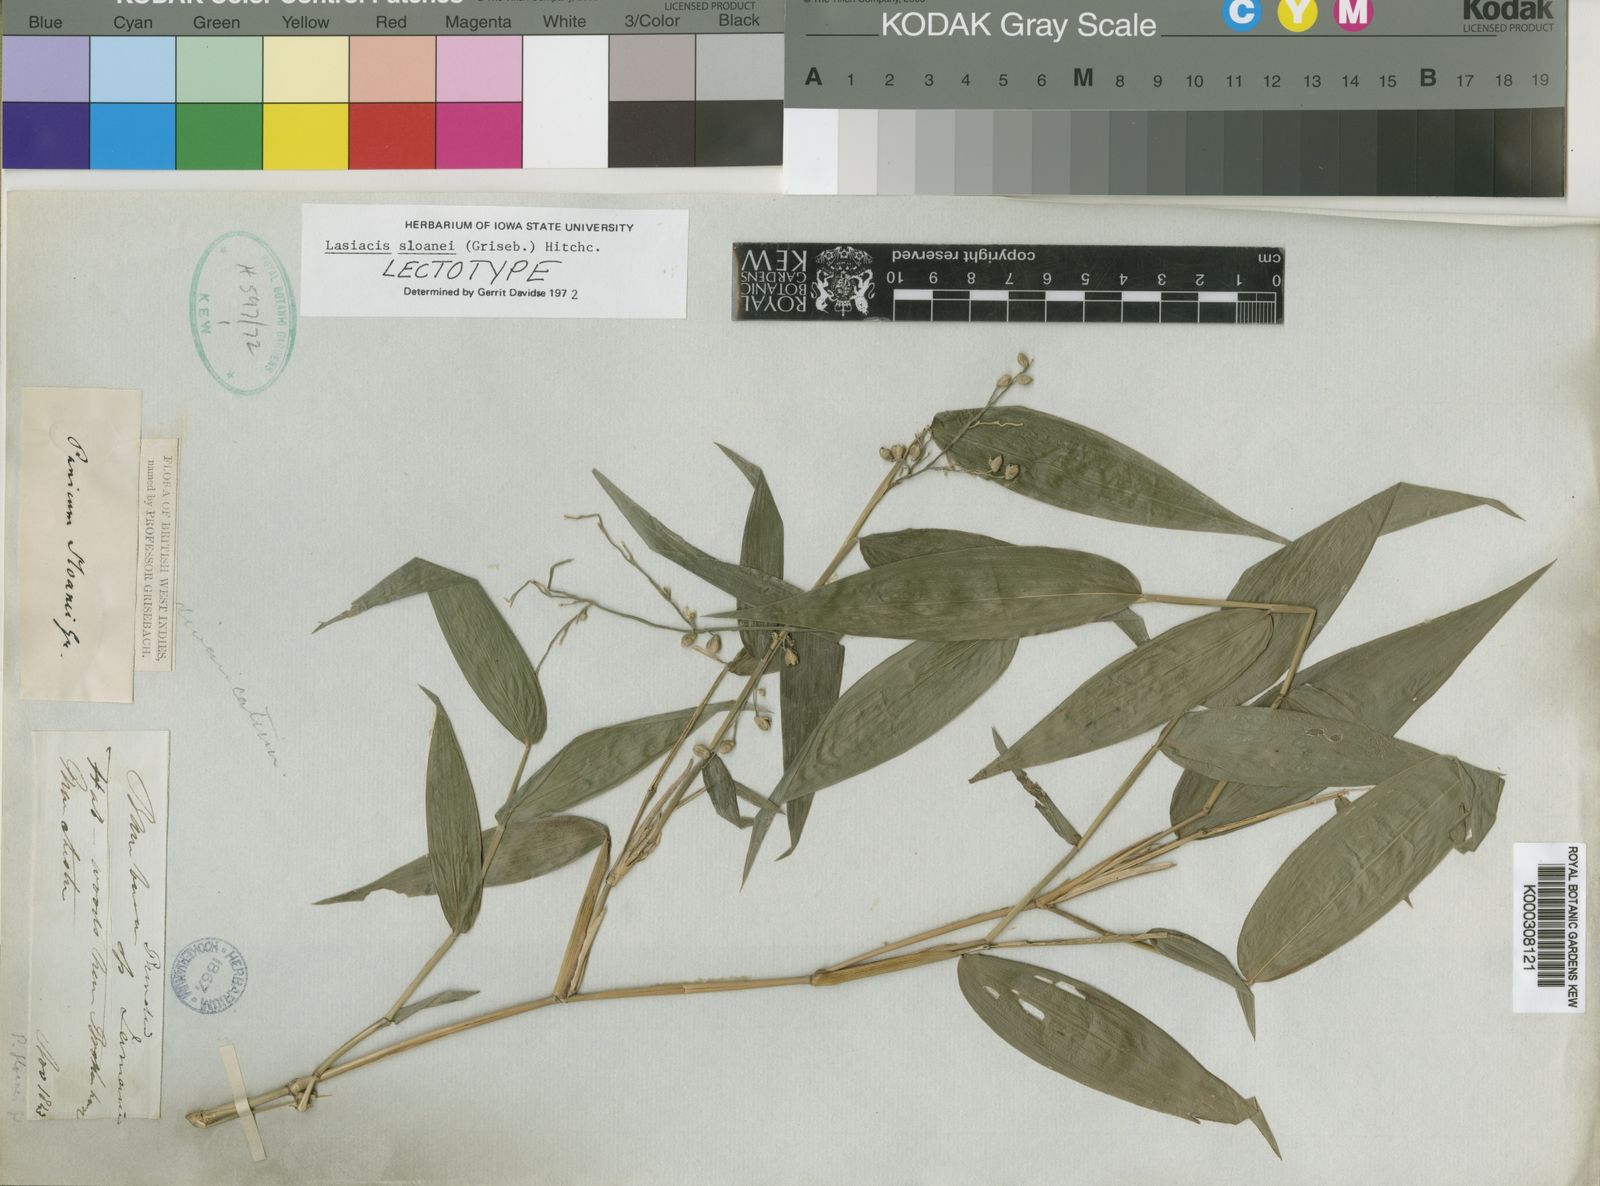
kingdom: Plantae
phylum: Tracheophyta
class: Liliopsida
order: Poales
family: Poaceae
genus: Lasiacis
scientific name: Lasiacis sloanei
